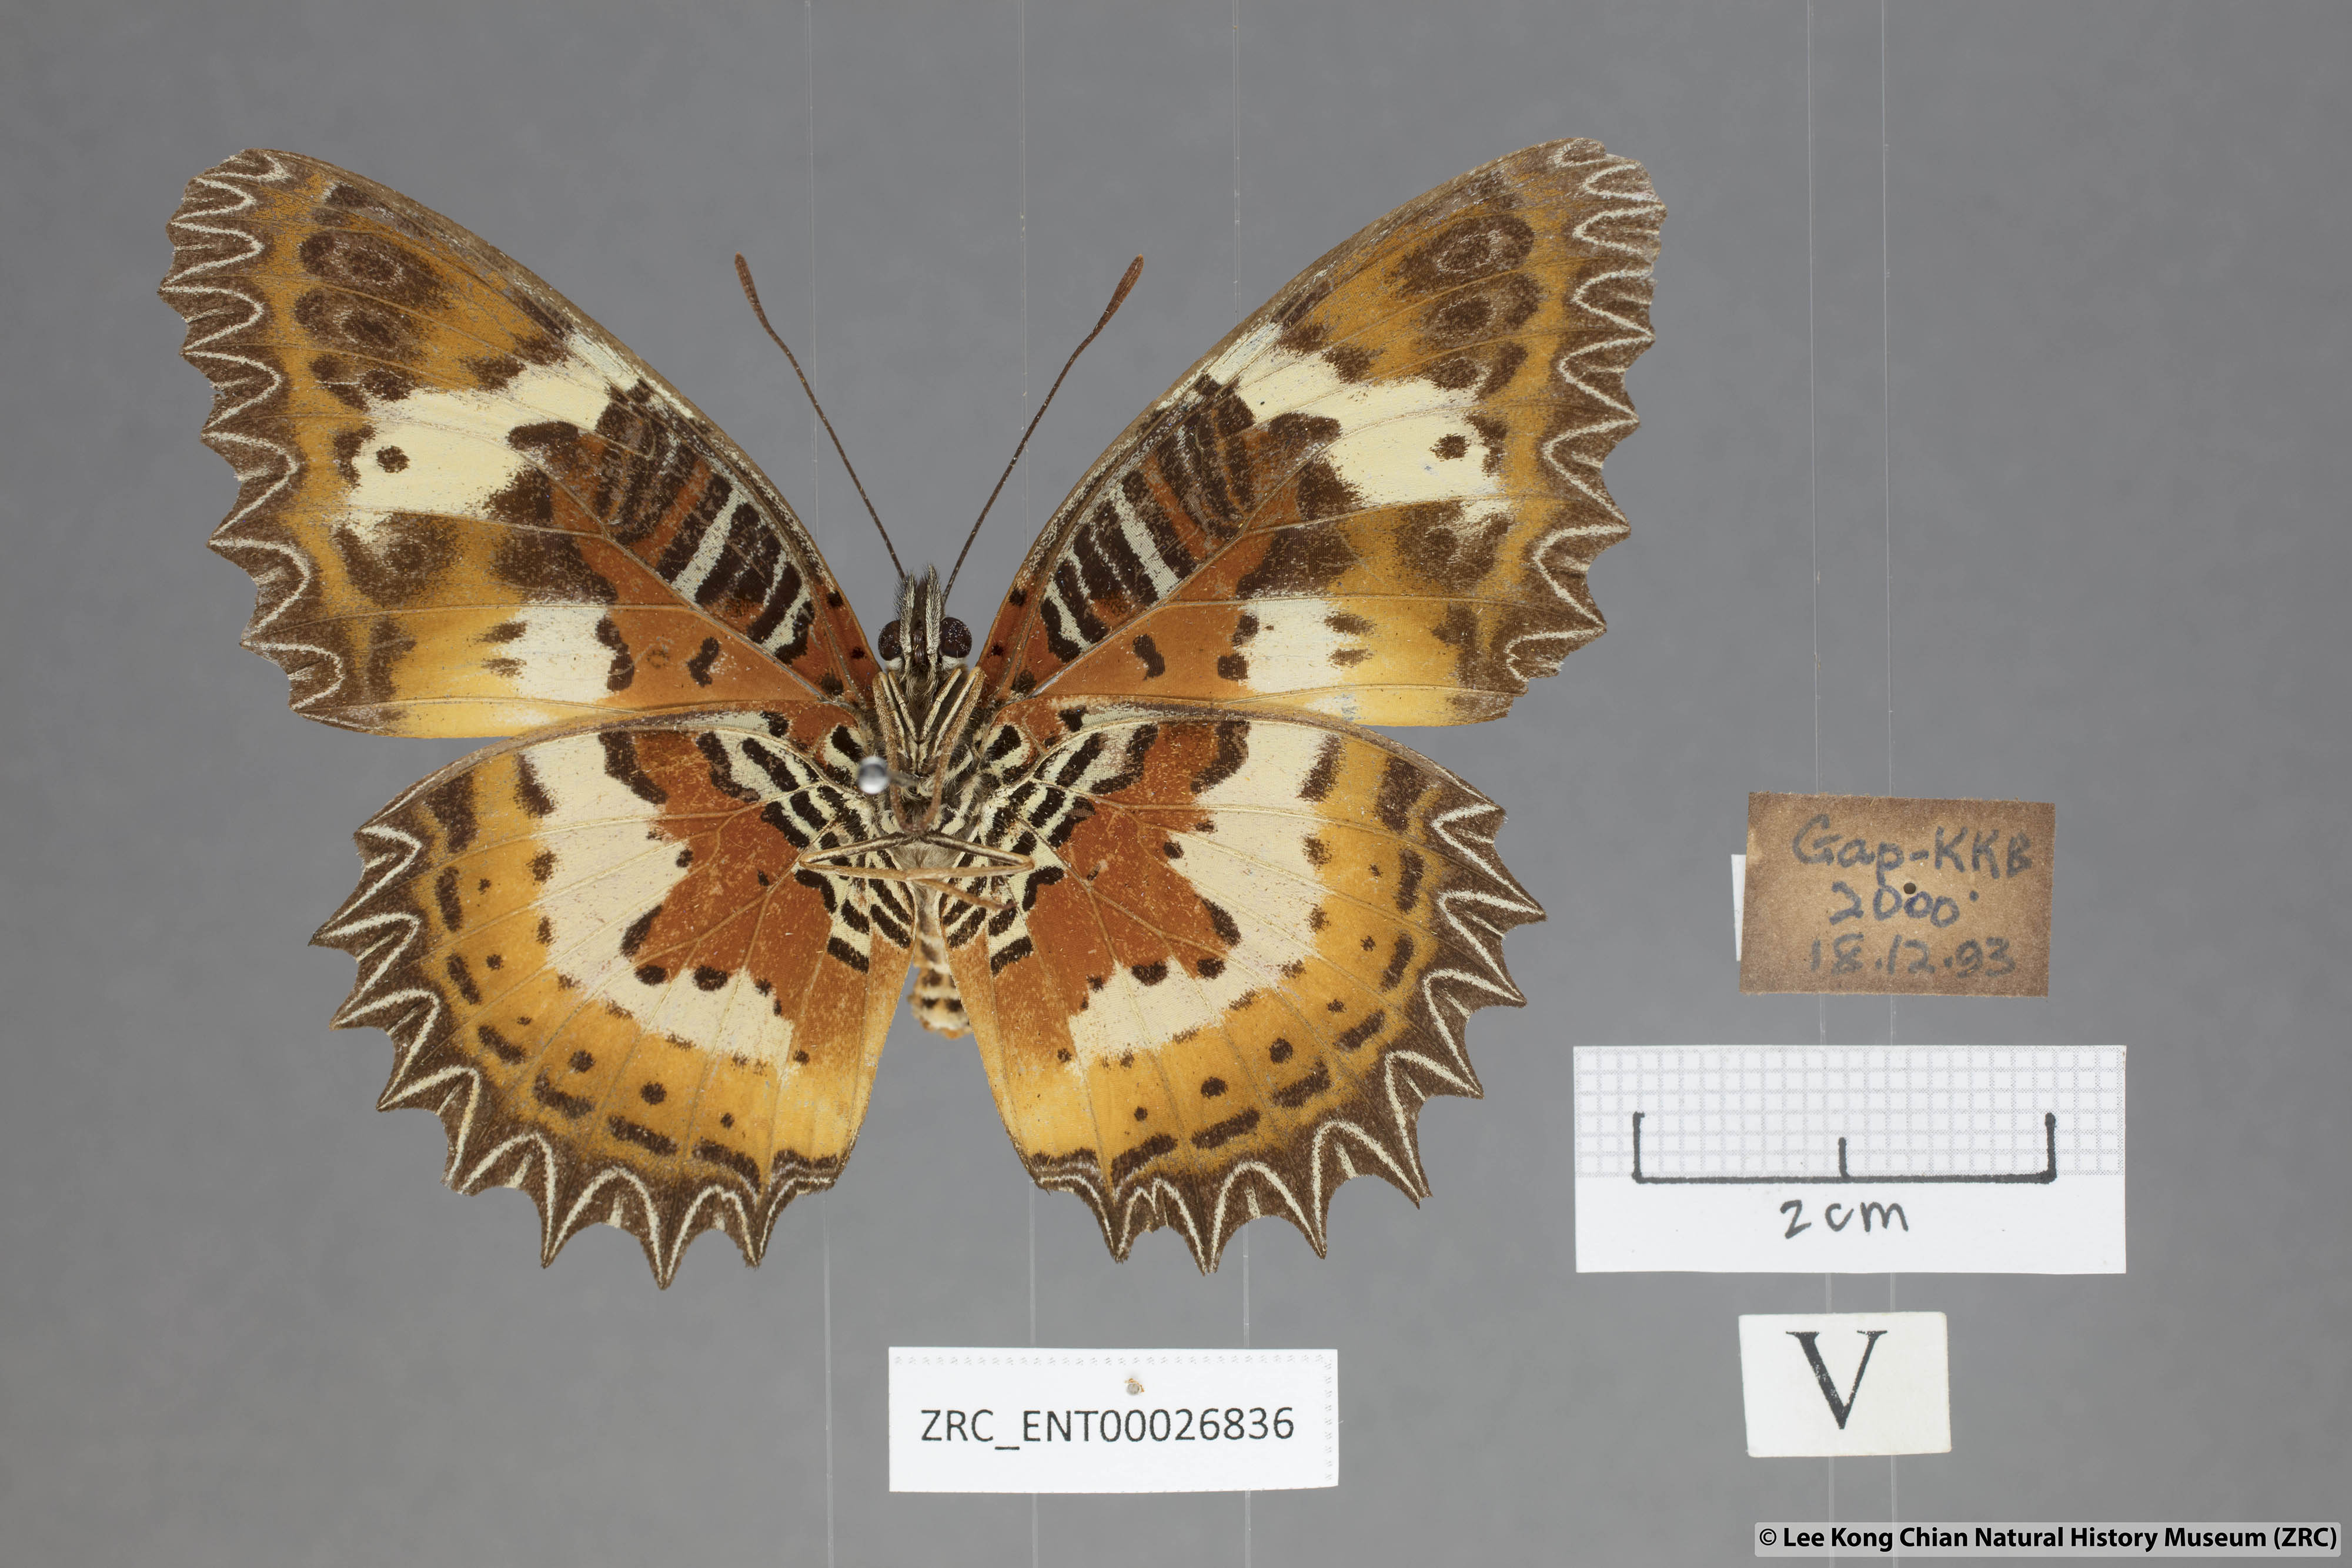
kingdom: Animalia
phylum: Arthropoda
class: Insecta
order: Lepidoptera
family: Nymphalidae
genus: Cethosia
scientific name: Cethosia hypsea
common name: Malayan lacewing butterfly
